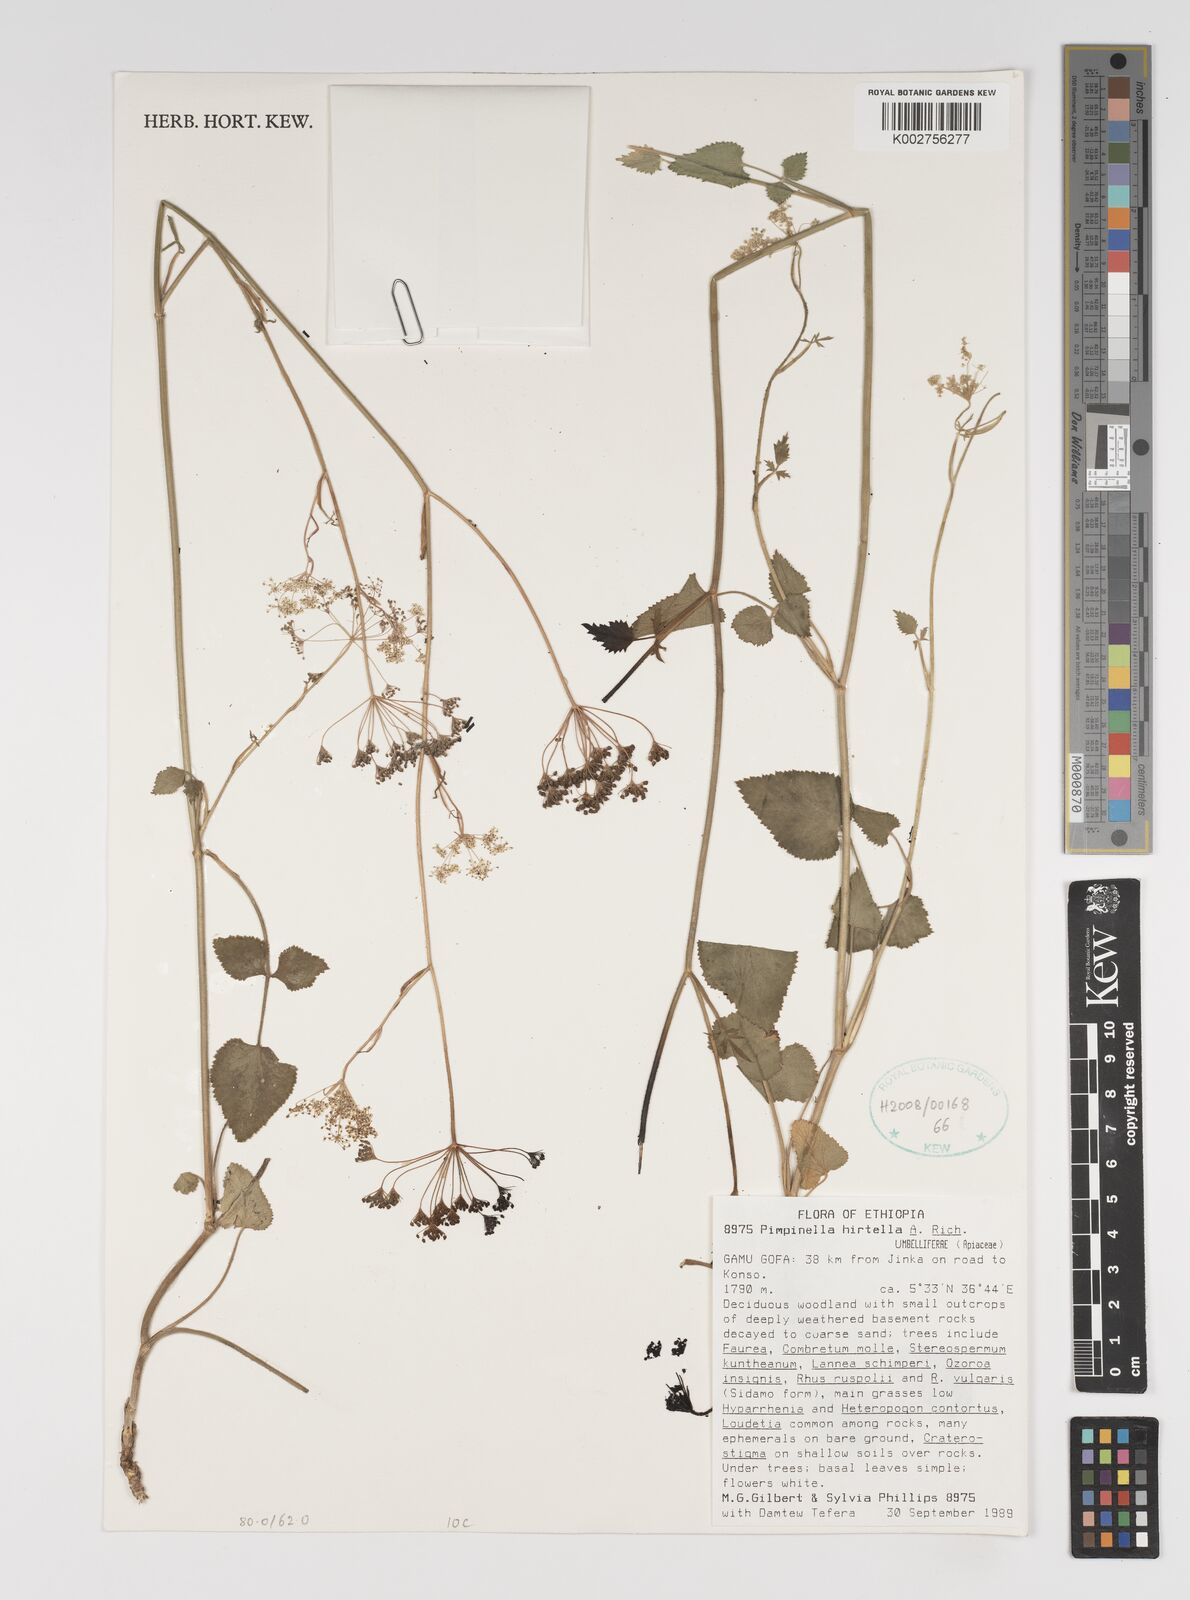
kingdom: Plantae
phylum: Tracheophyta
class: Magnoliopsida
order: Apiales
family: Apiaceae
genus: Pimpinella
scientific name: Pimpinella hirtella
